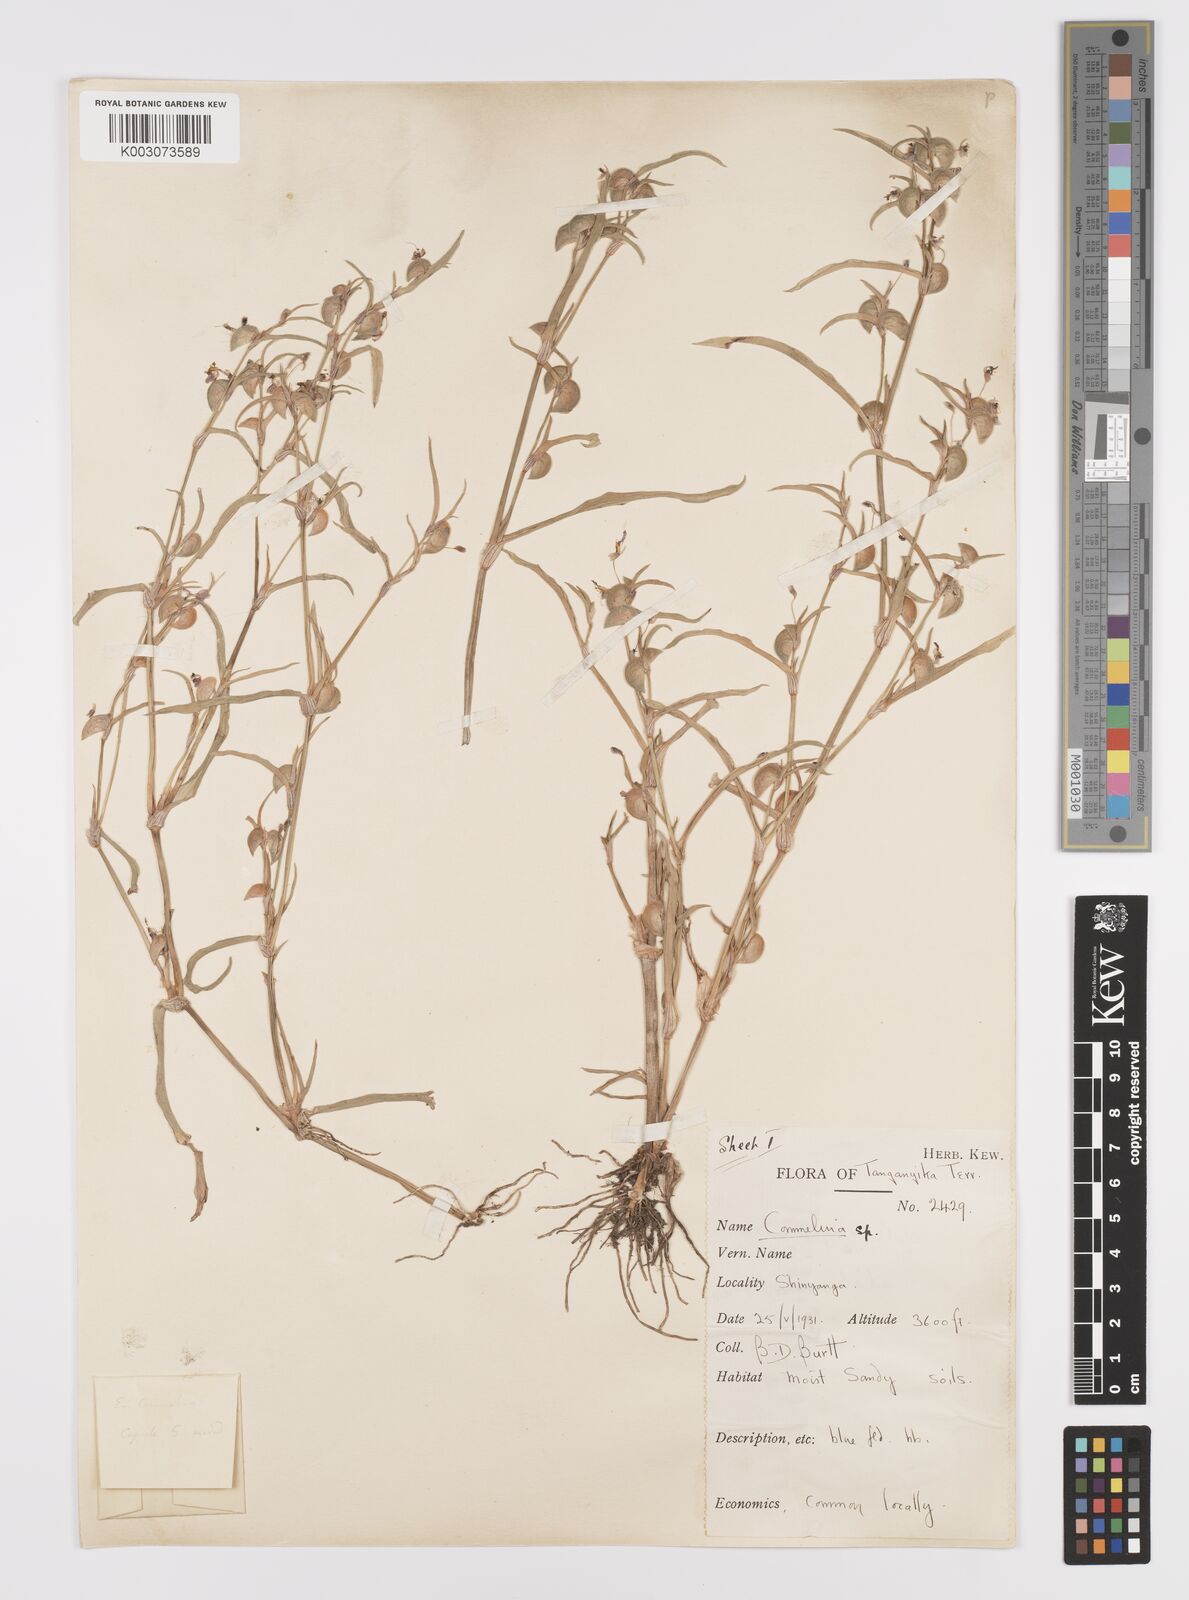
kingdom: Plantae
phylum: Tracheophyta
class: Liliopsida
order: Commelinales
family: Commelinaceae
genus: Commelina
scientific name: Commelina subulata
